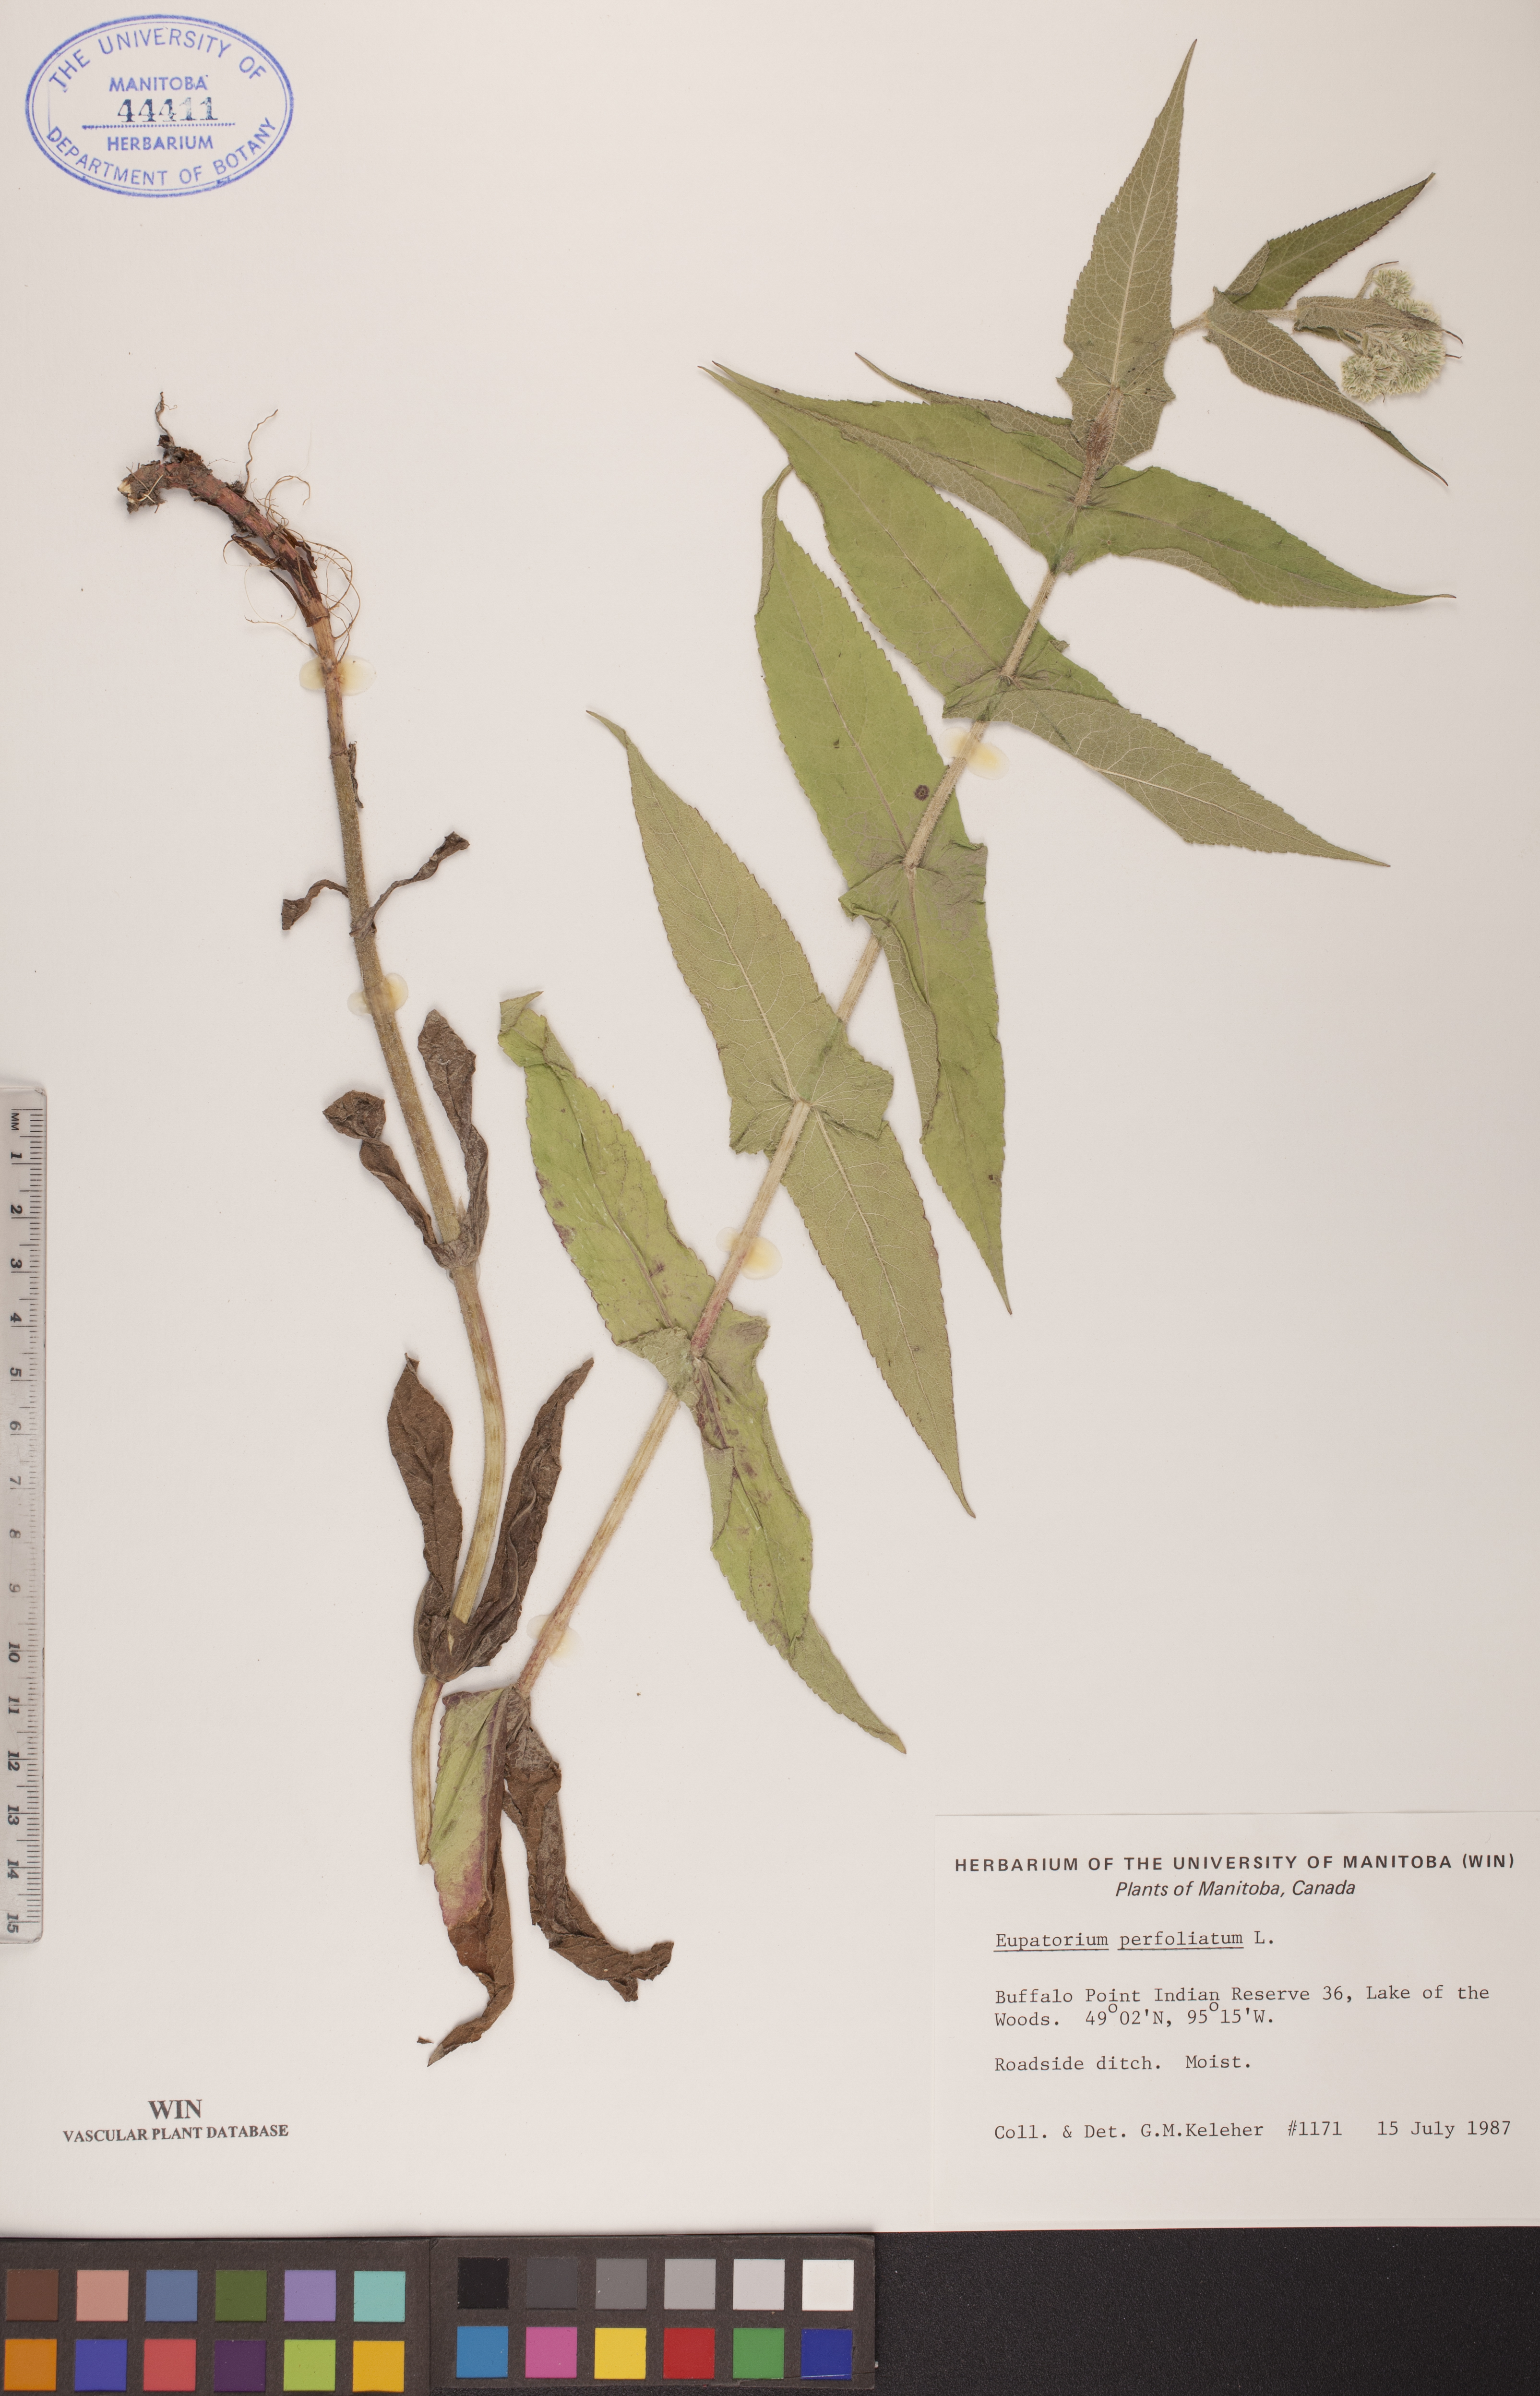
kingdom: Plantae
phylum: Tracheophyta
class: Magnoliopsida
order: Asterales
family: Asteraceae
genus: Eupatorium
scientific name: Eupatorium perfoliatum
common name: Boneset
